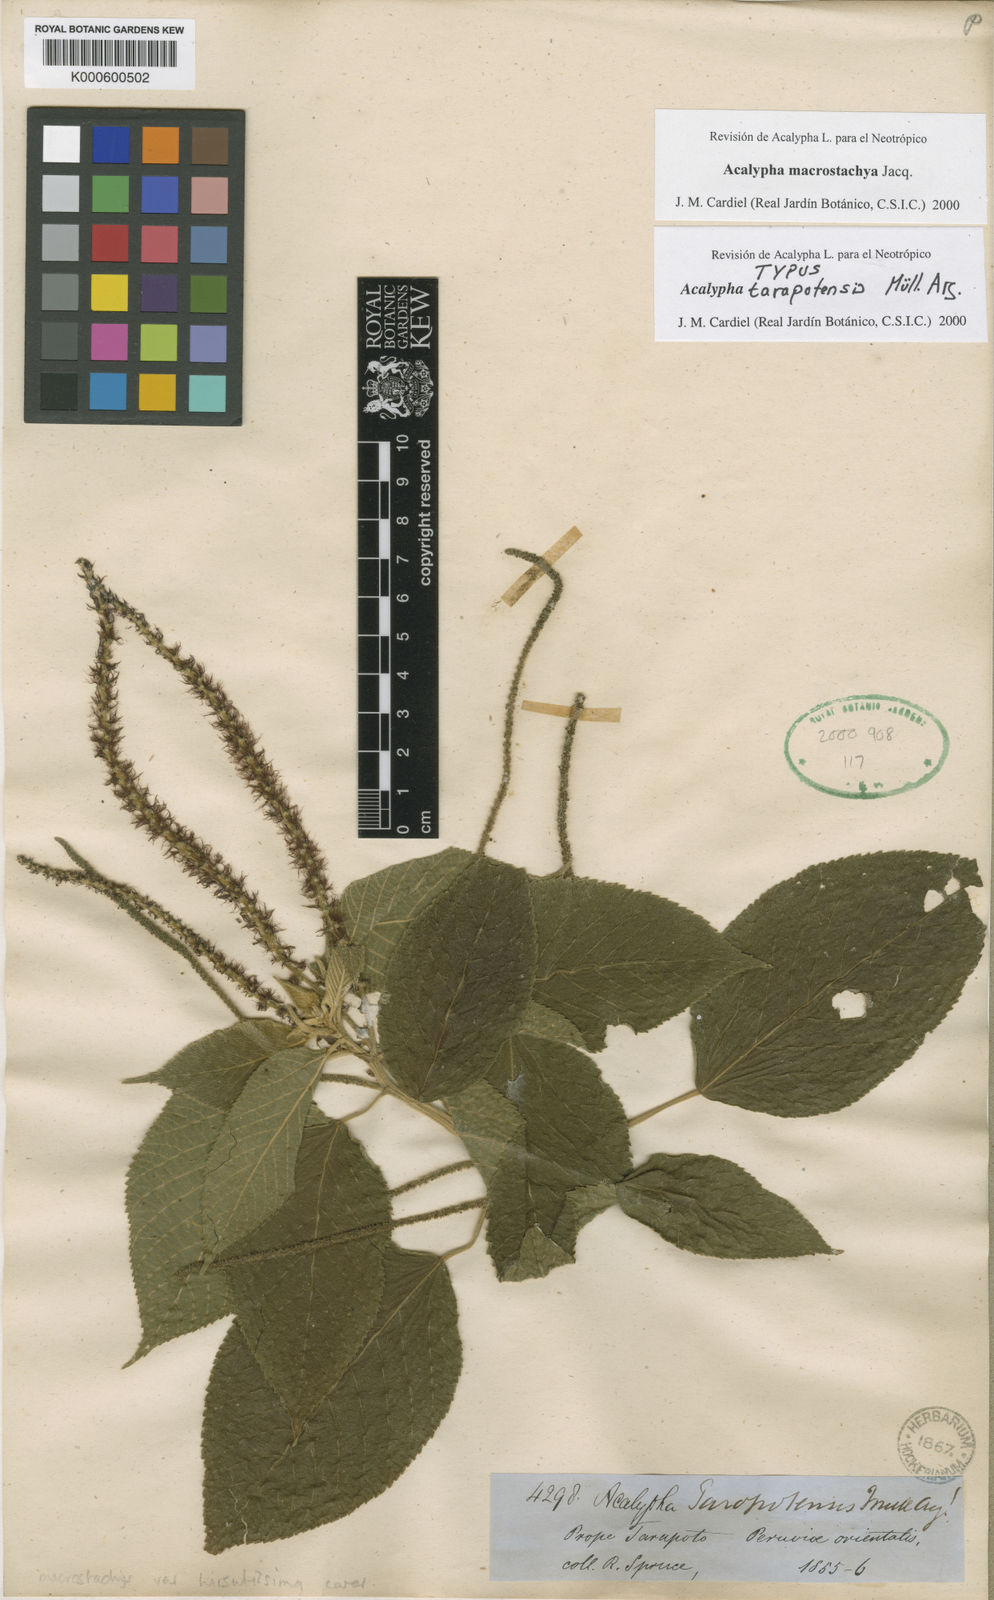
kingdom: Plantae
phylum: Tracheophyta
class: Magnoliopsida
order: Malpighiales
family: Euphorbiaceae
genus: Acalypha
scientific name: Acalypha macrostachya
